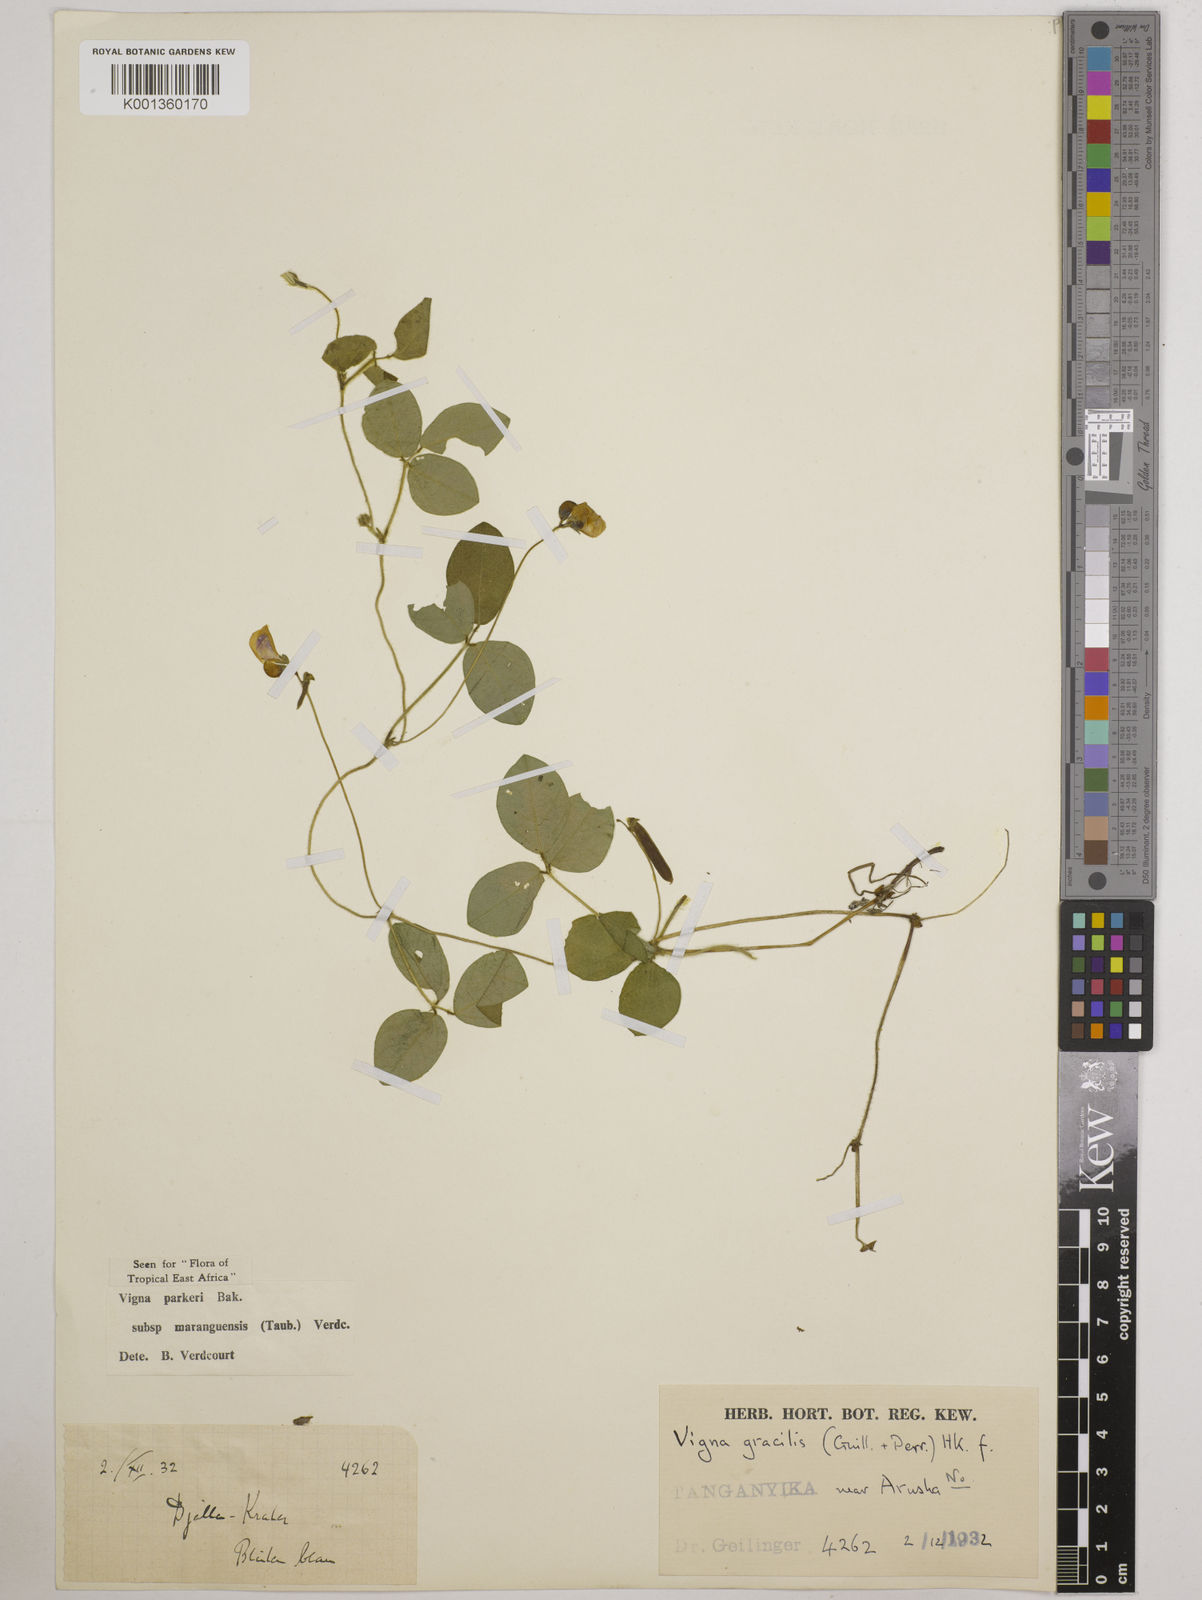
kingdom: Plantae
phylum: Tracheophyta
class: Magnoliopsida
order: Fabales
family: Fabaceae
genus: Vigna
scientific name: Vigna
